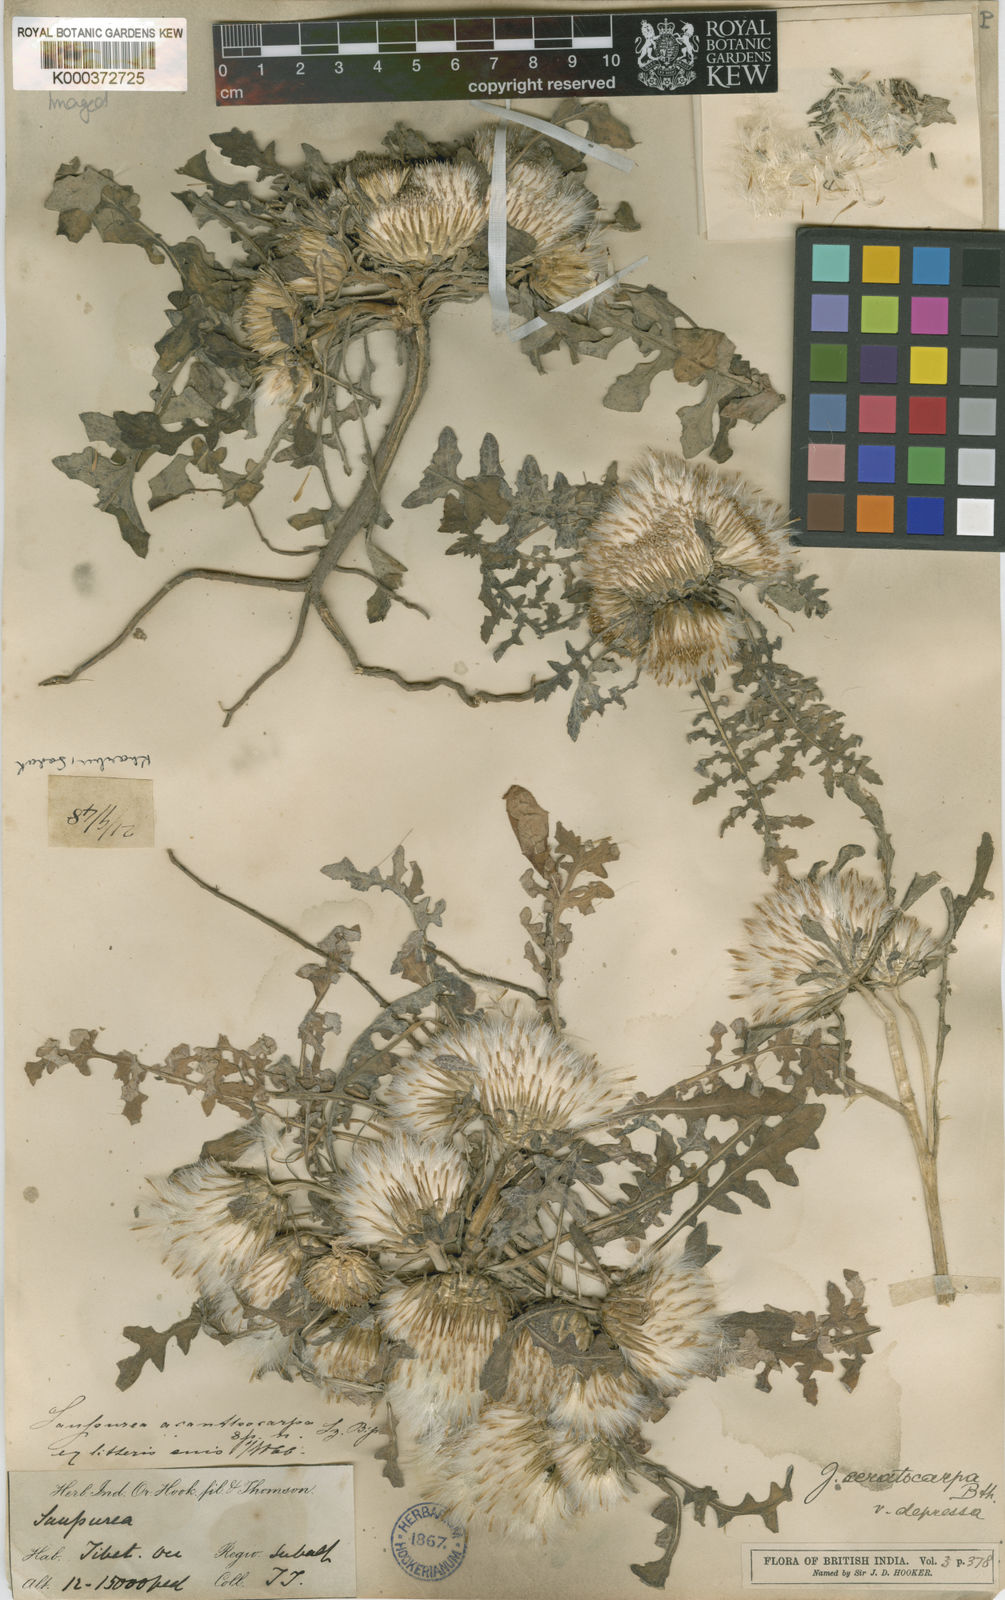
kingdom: Plantae
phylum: Tracheophyta
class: Magnoliopsida
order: Asterales
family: Asteraceae
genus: Jurinea
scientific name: Jurinea ceratocarpa
